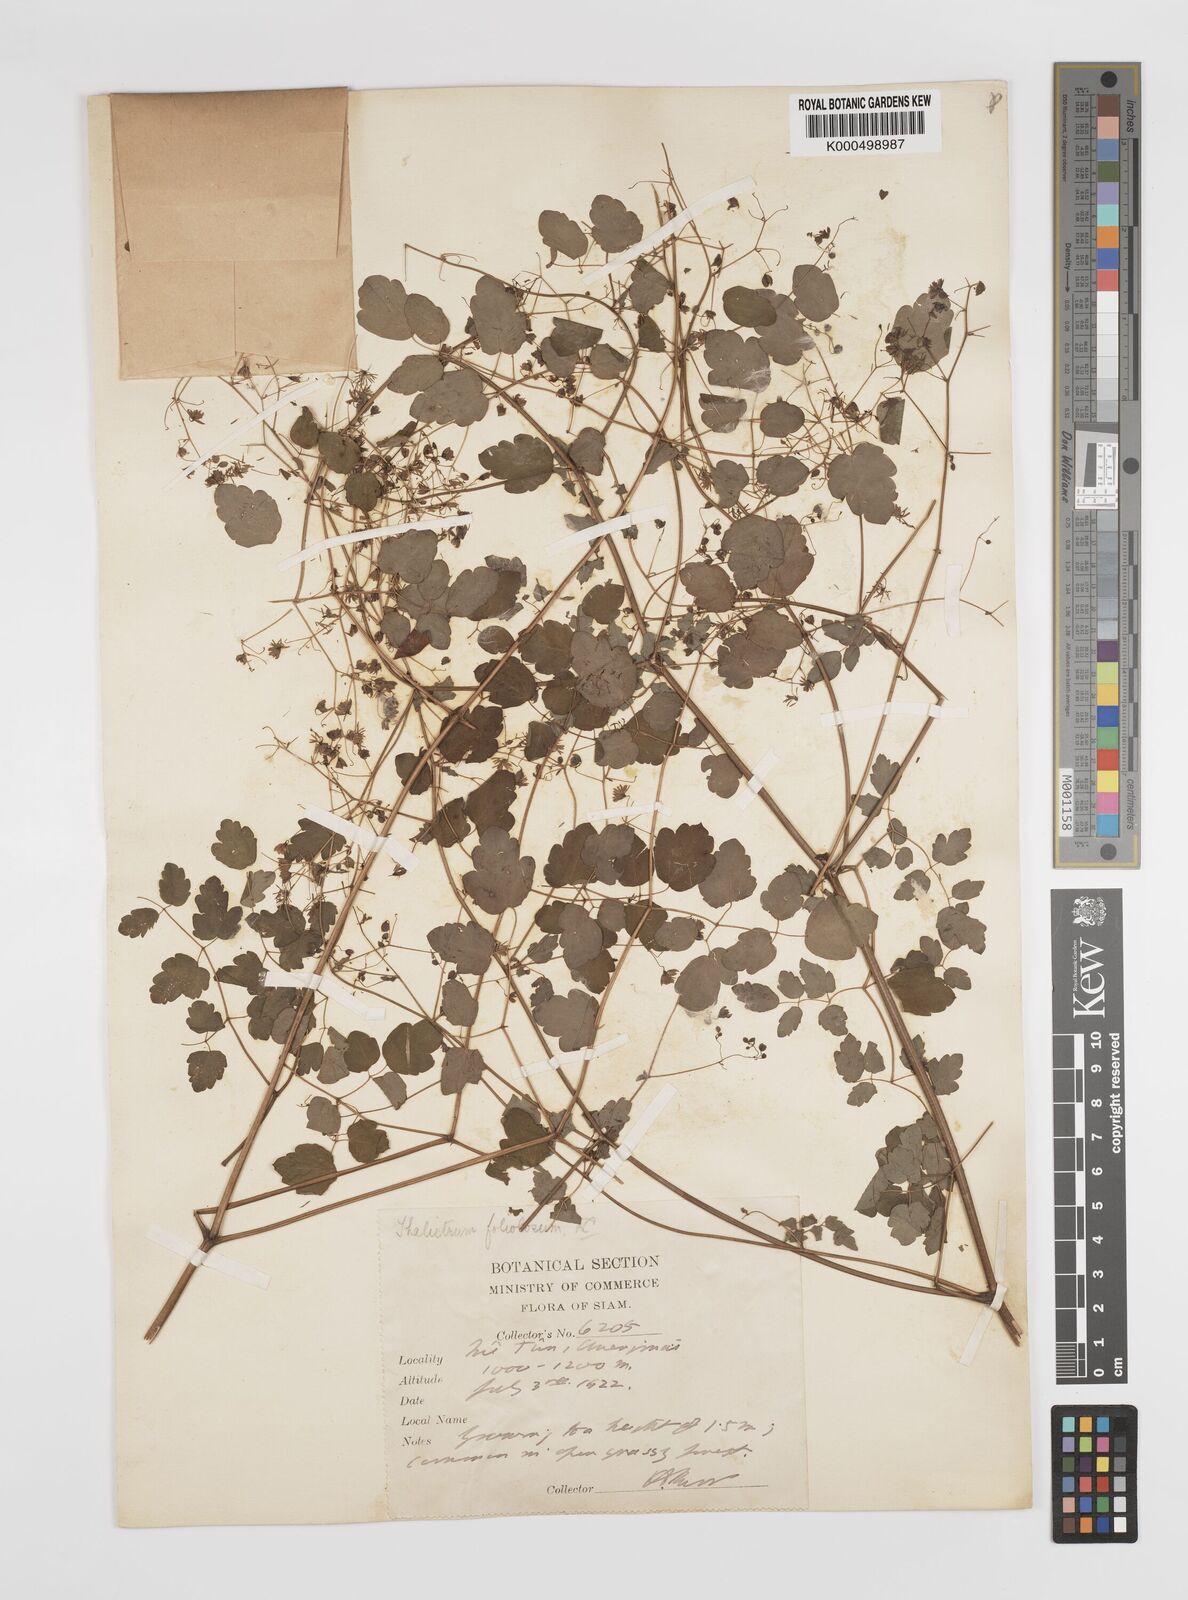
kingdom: Plantae
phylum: Tracheophyta
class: Magnoliopsida
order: Ranunculales
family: Ranunculaceae
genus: Thalictrum
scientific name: Thalictrum foliolosum
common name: Asian meadow-rue
